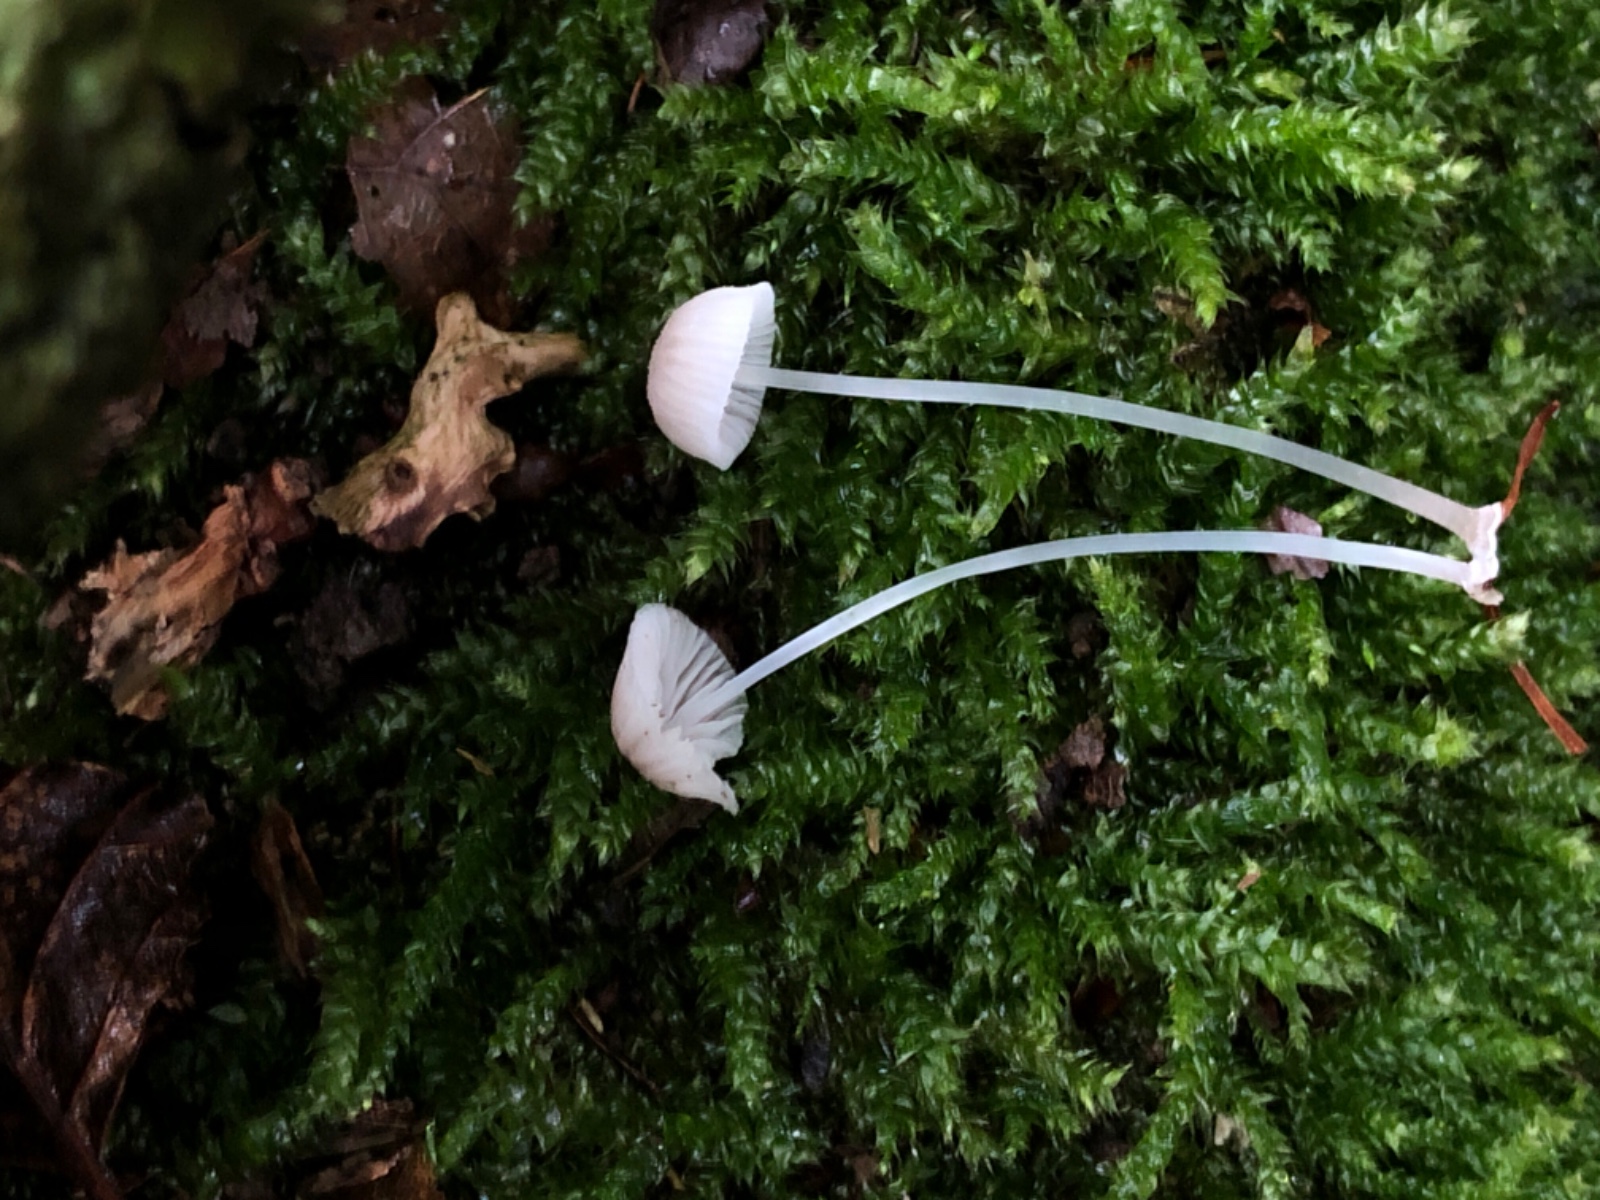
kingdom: Fungi
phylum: Basidiomycota
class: Agaricomycetes
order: Agaricales
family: Mycenaceae
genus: Mycena
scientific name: Mycena stylobates
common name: fureskivet huesvamp
